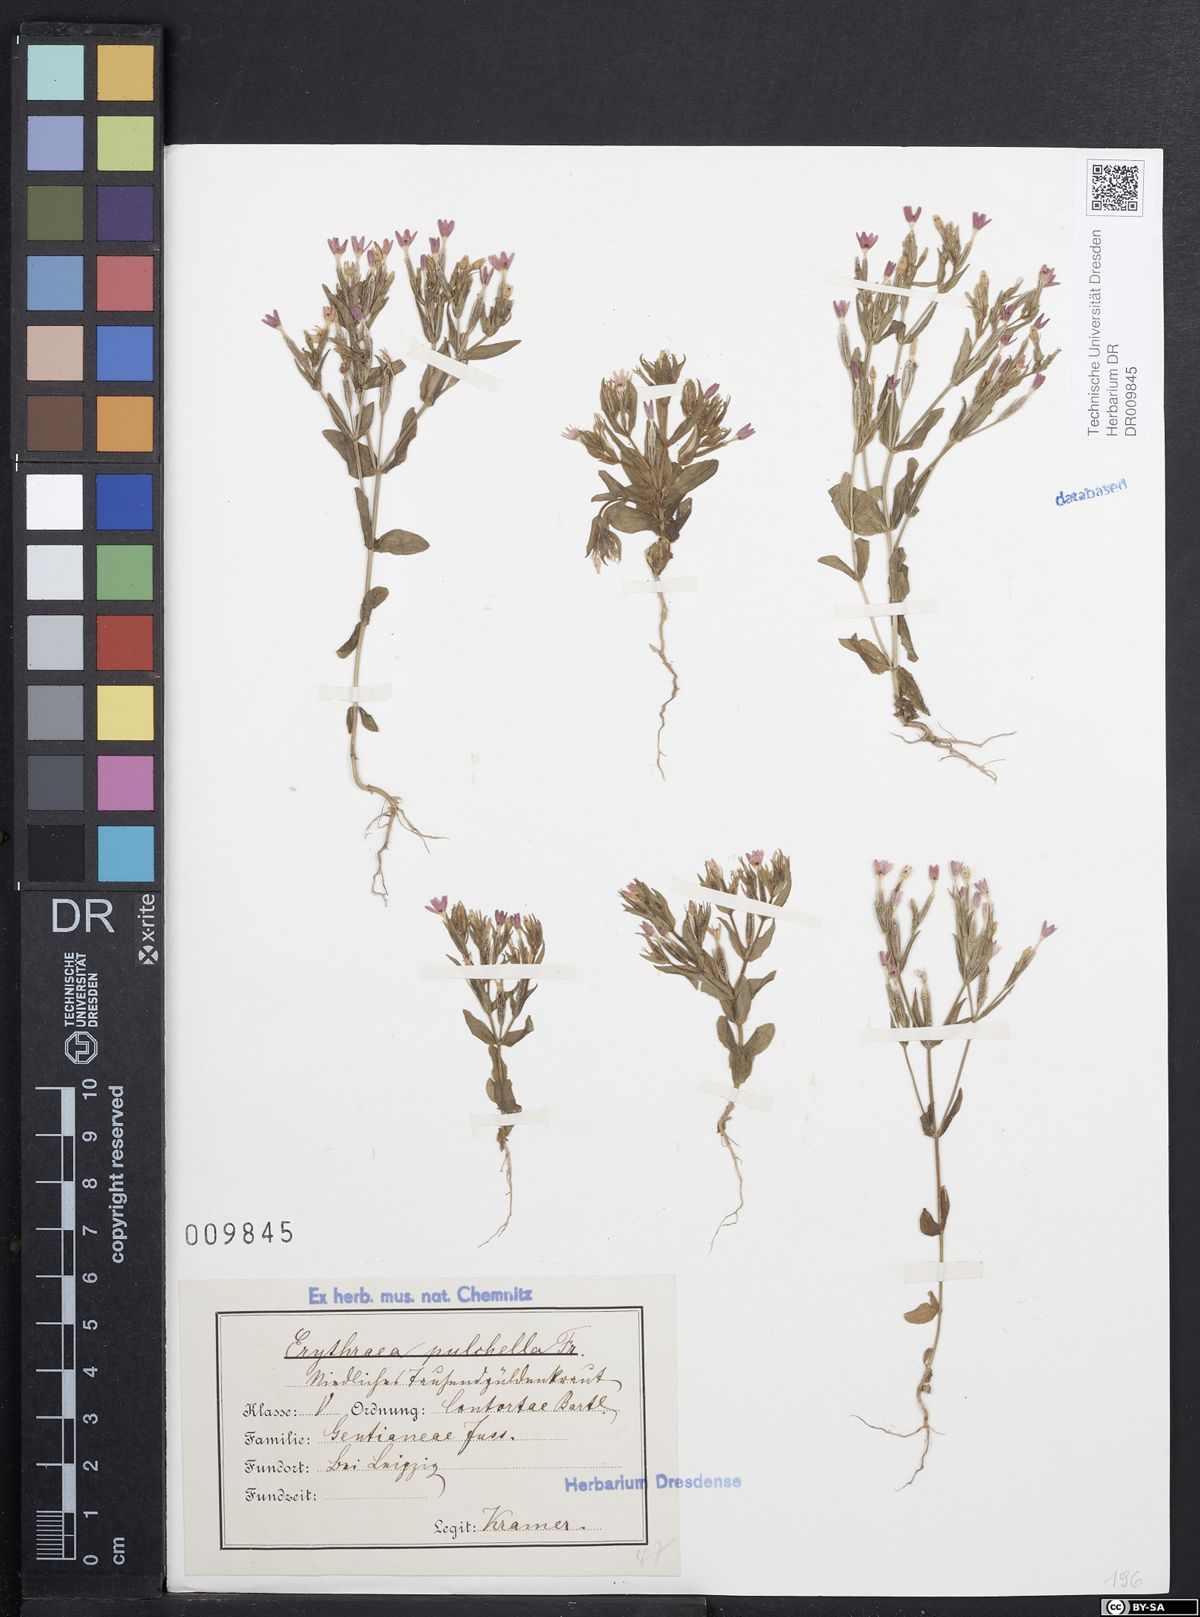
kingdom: Plantae
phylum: Tracheophyta
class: Magnoliopsida
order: Gentianales
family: Gentianaceae
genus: Centaurium
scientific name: Centaurium pulchellum
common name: Lesser centaury
